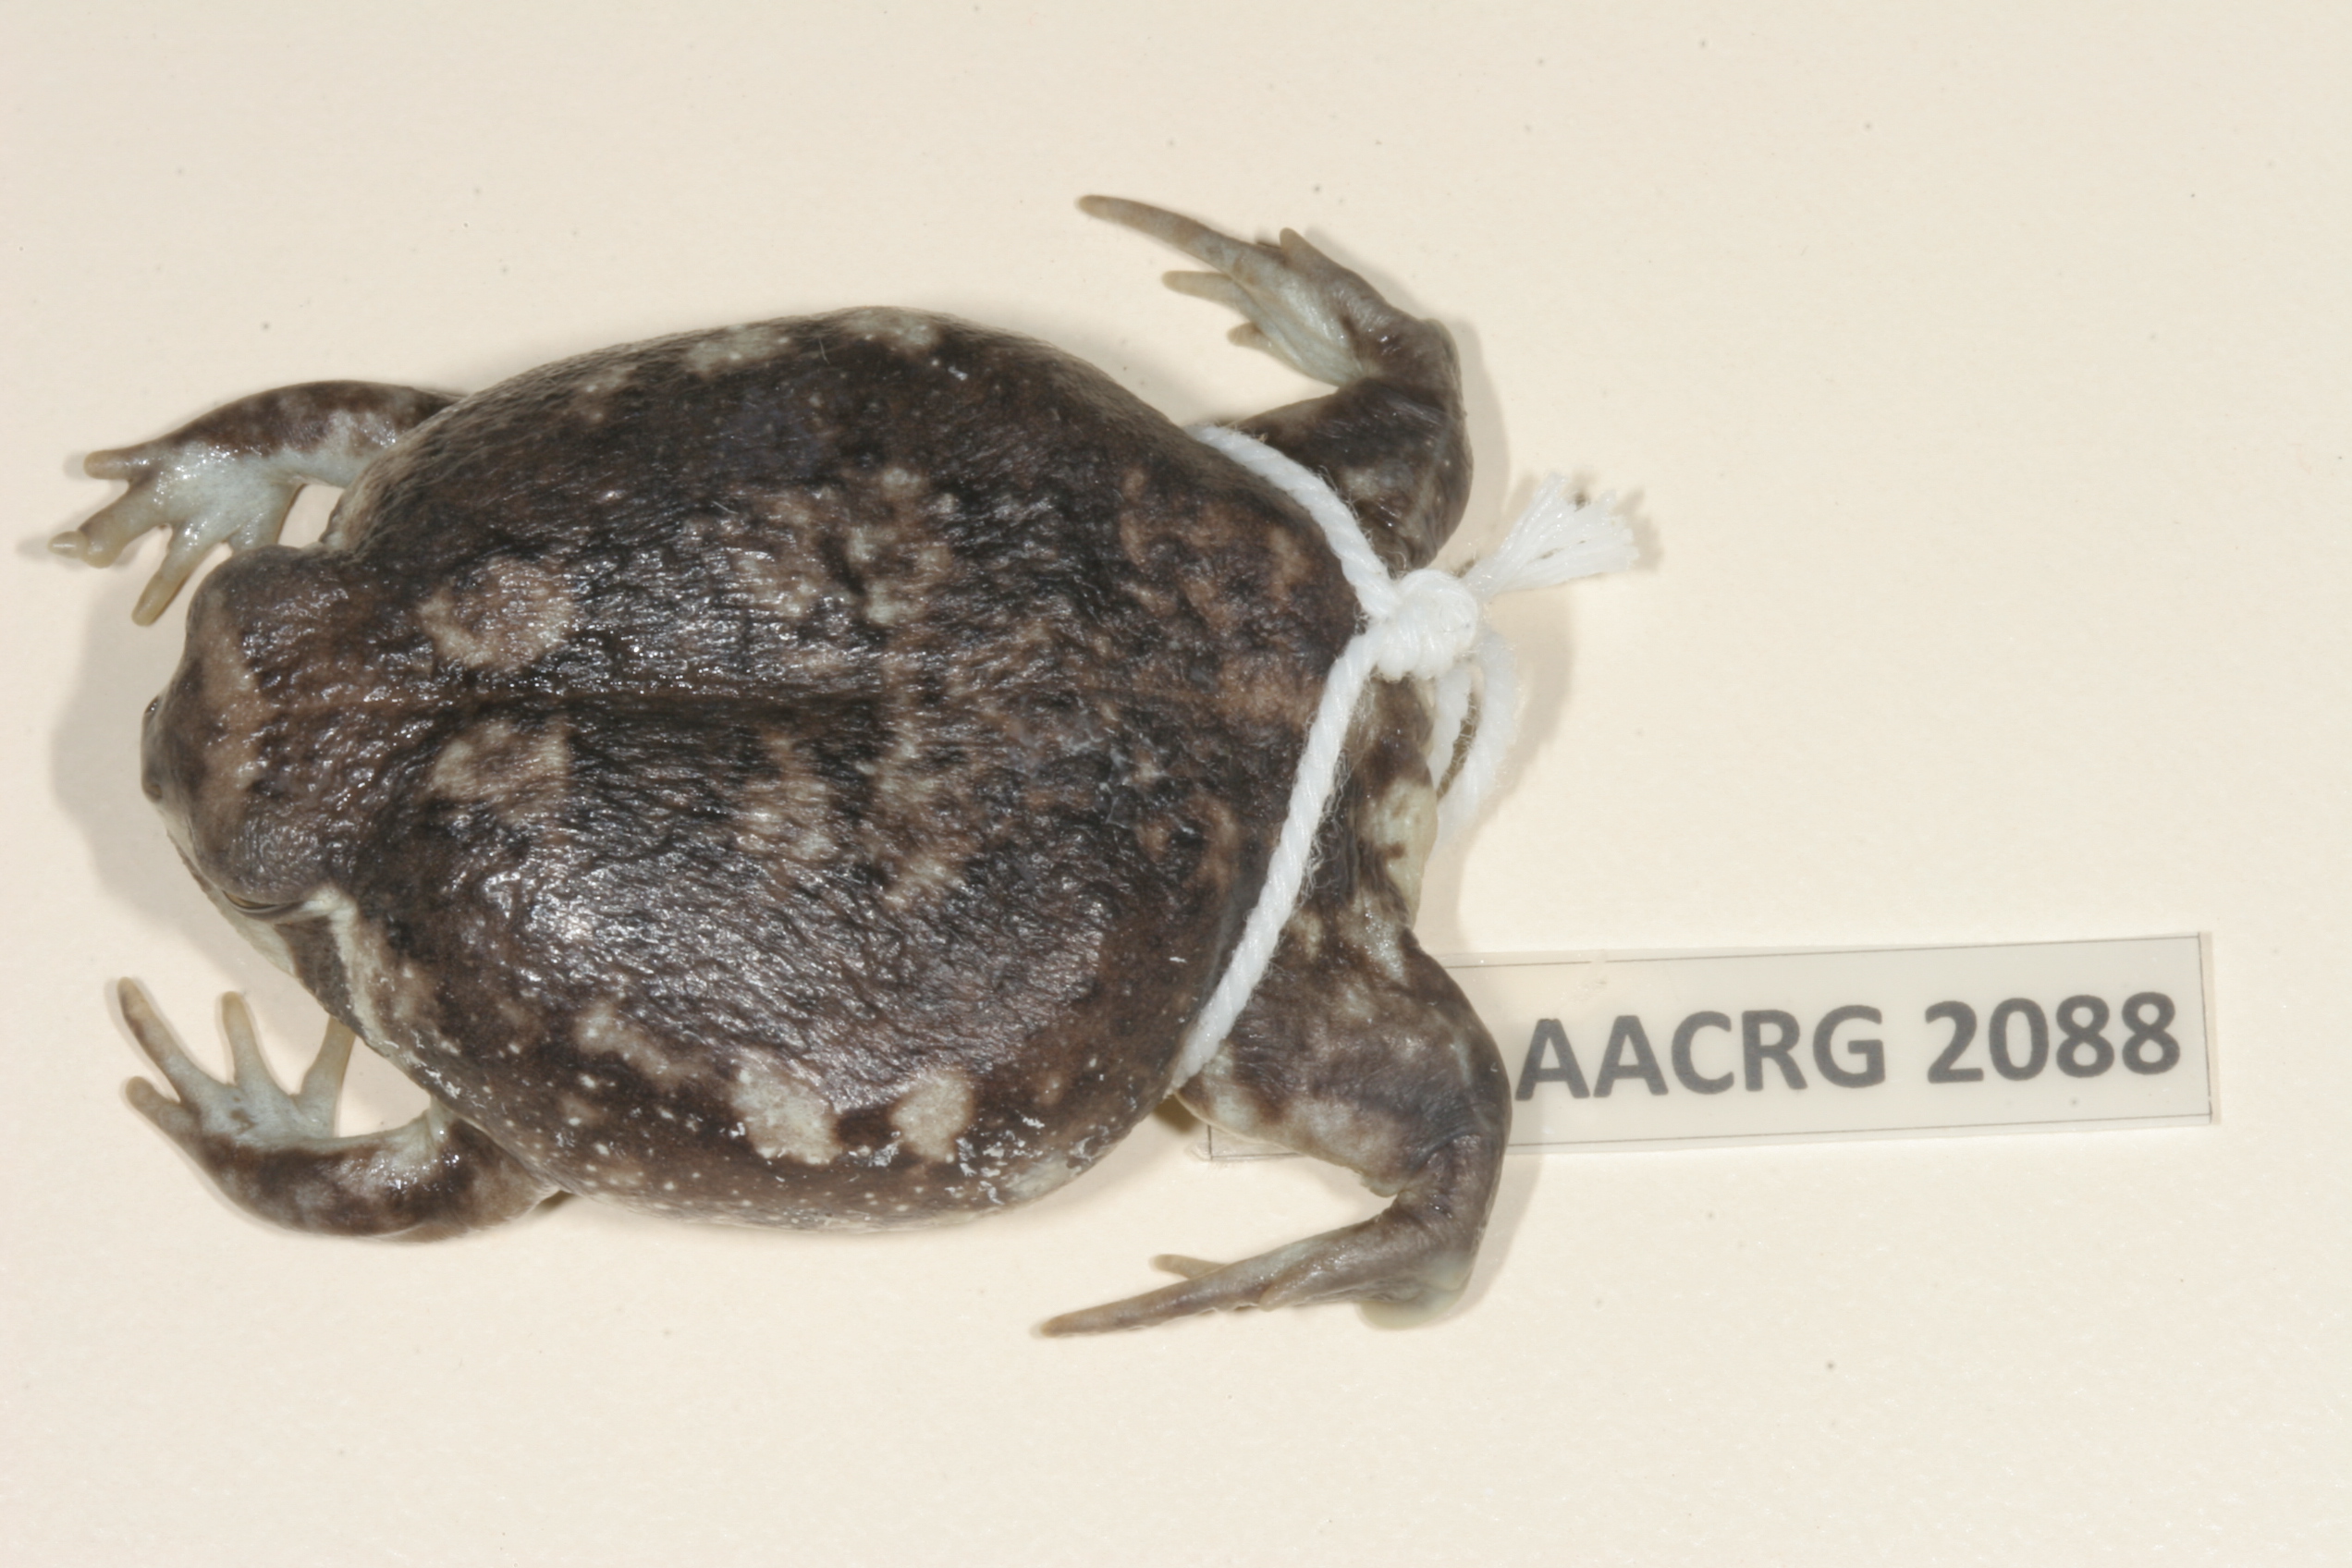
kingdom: Animalia
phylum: Chordata
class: Amphibia
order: Anura
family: Brevicipitidae
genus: Breviceps
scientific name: Breviceps adspersus
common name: Common rain frog
